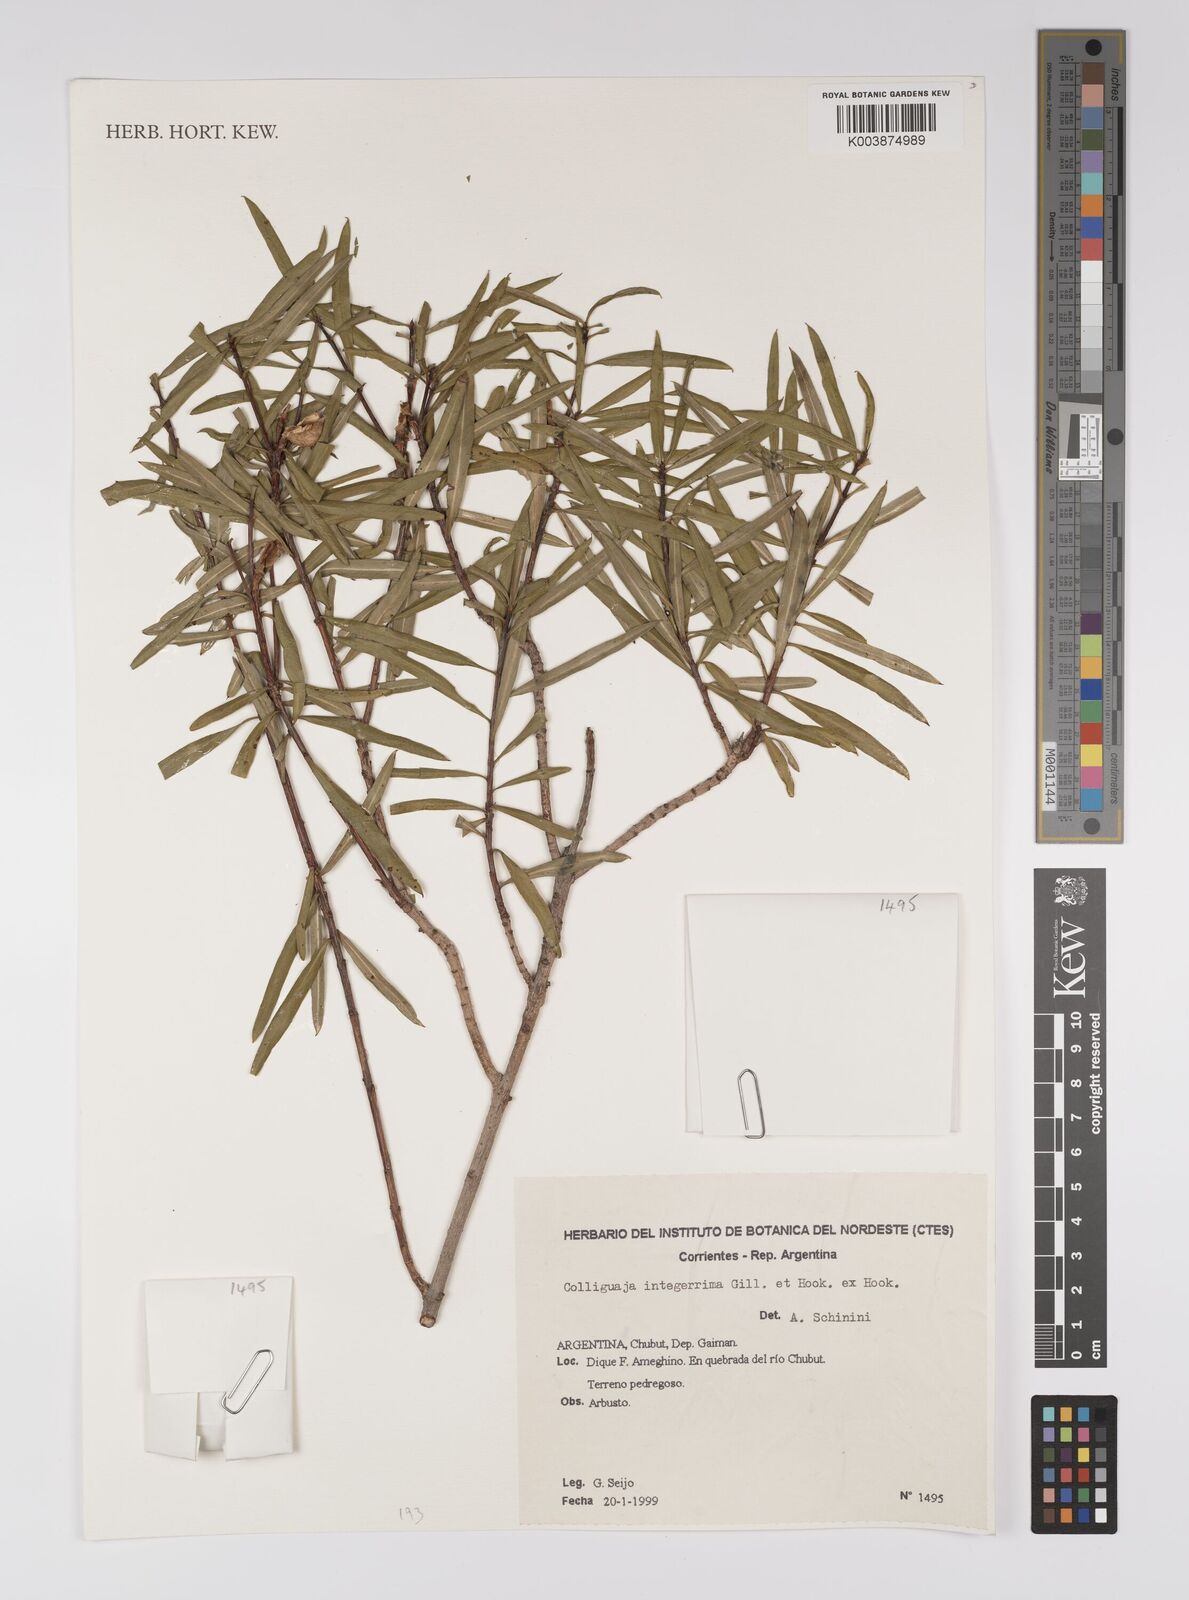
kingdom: Plantae
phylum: Tracheophyta
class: Magnoliopsida
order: Malpighiales
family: Euphorbiaceae
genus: Colliguaja
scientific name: Colliguaja integerrima
